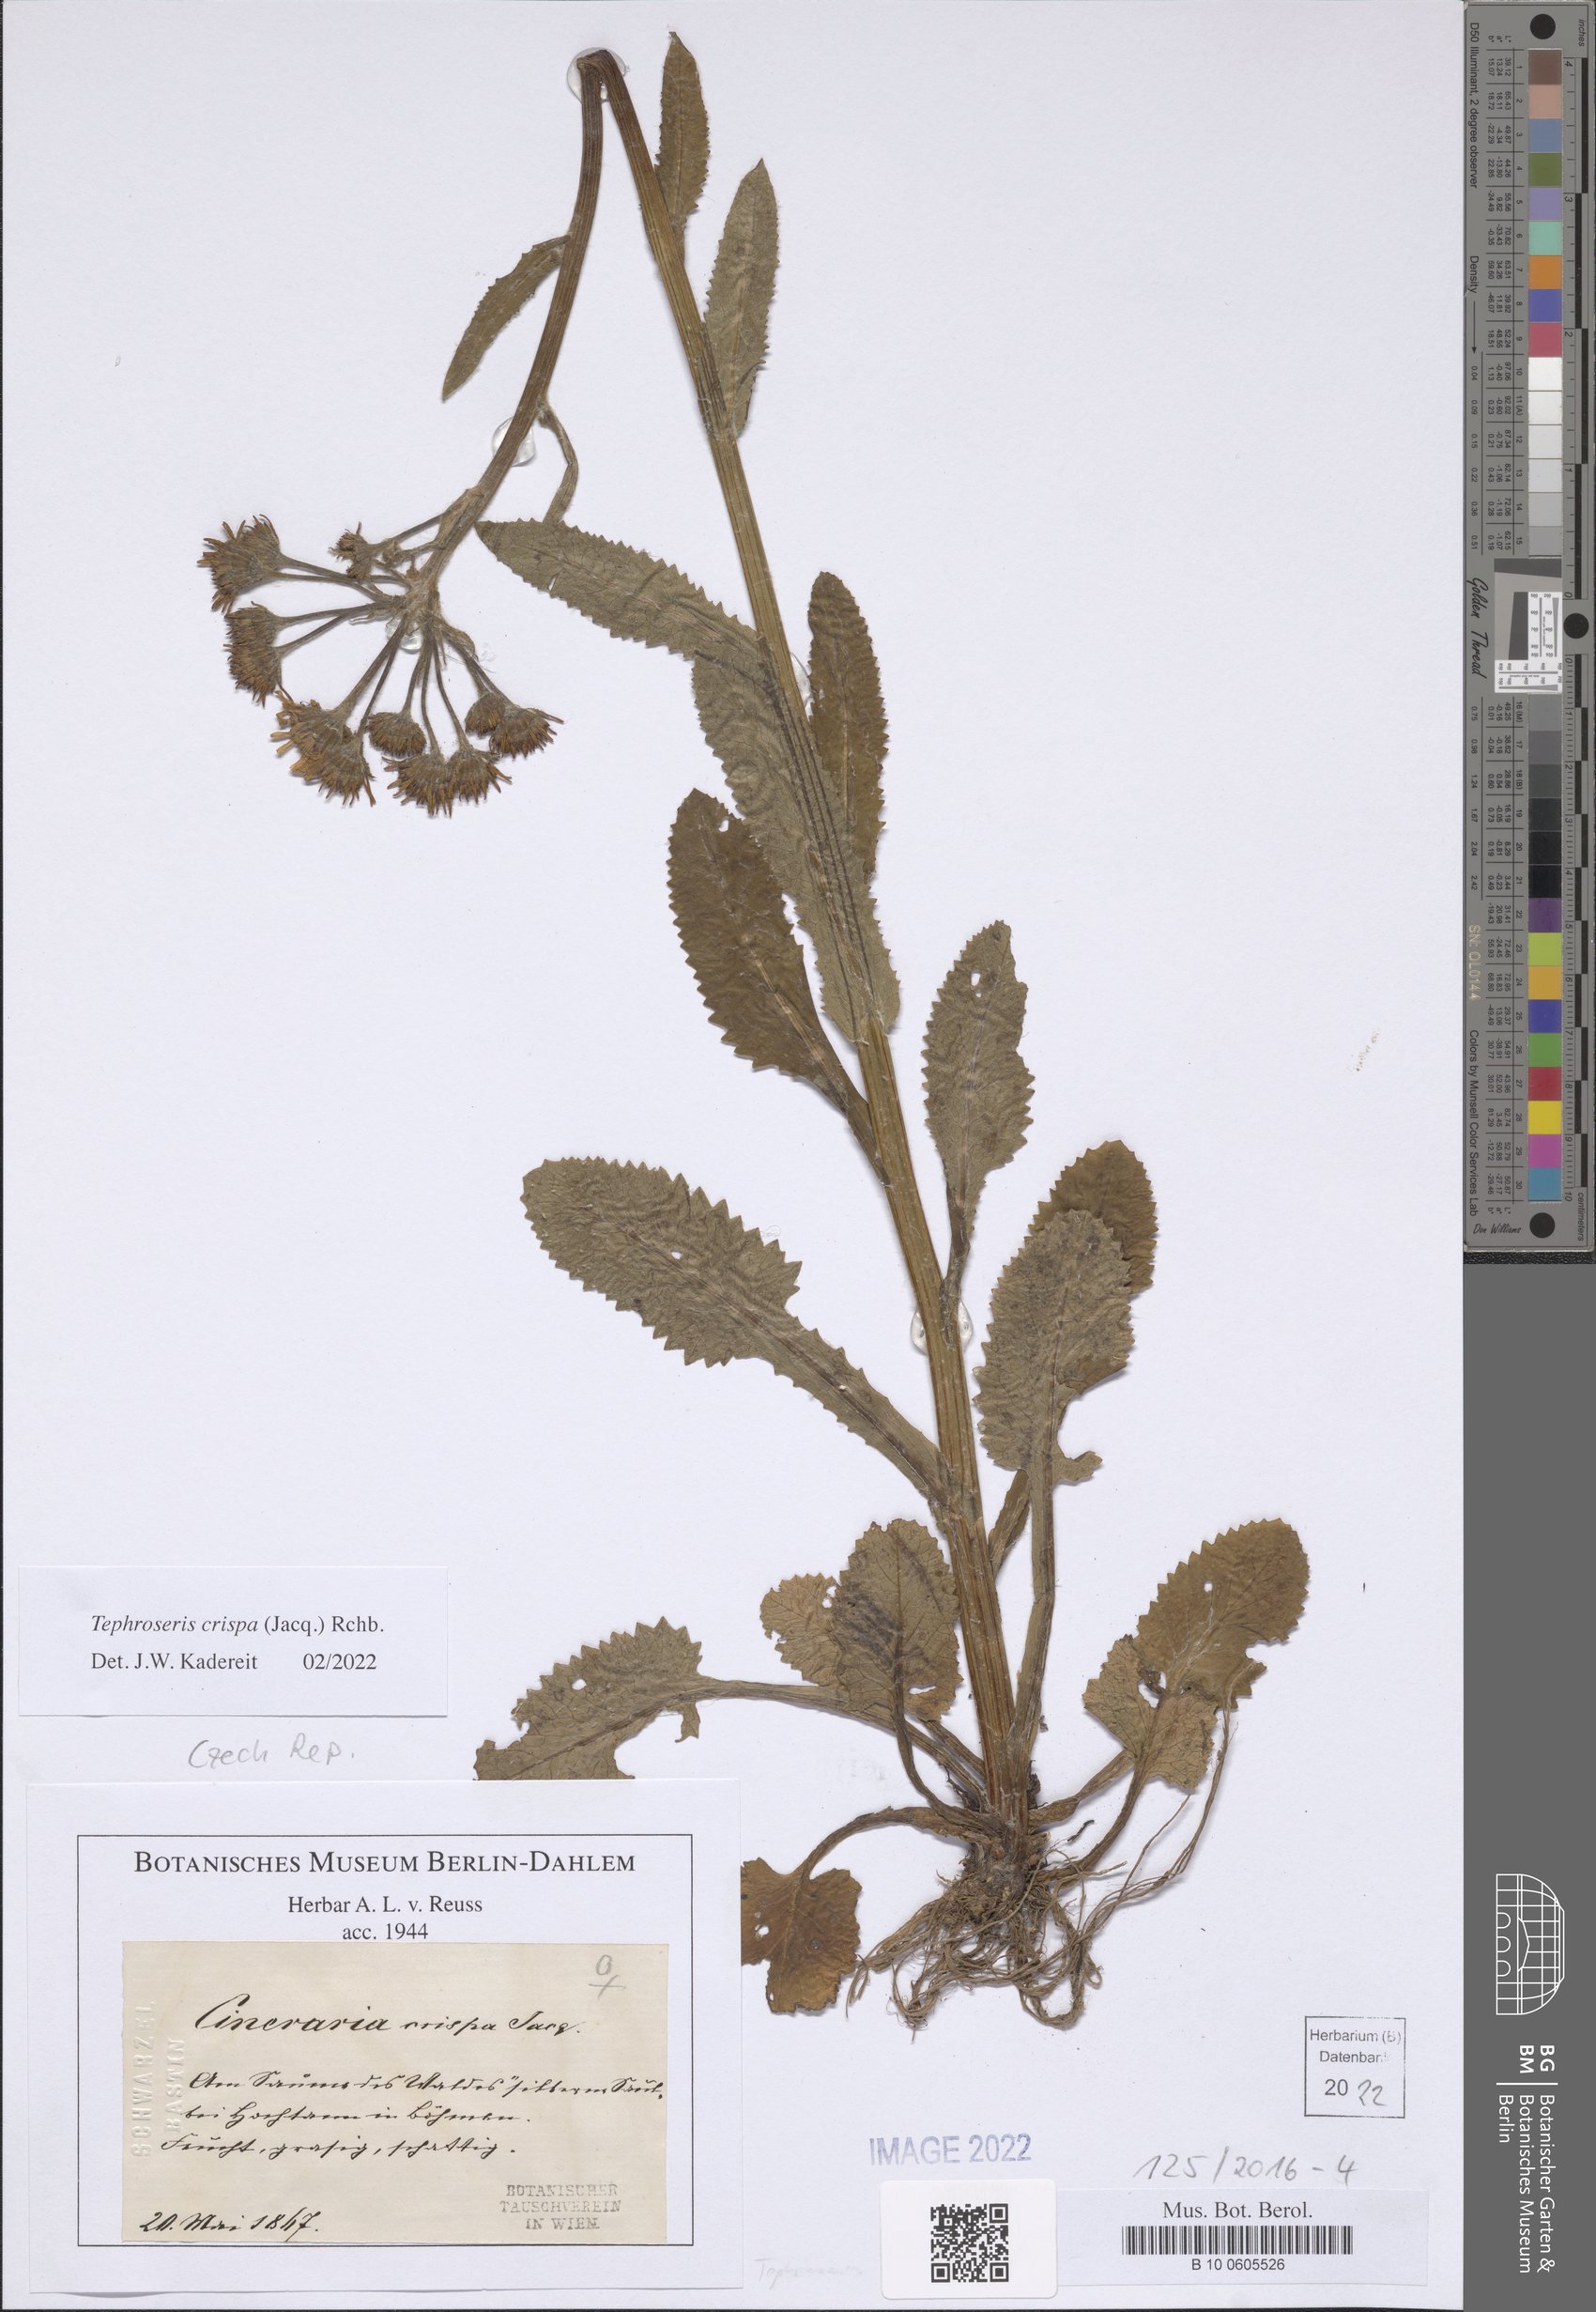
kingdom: Plantae
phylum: Tracheophyta
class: Magnoliopsida
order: Asterales
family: Asteraceae
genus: Tephroseris
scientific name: Tephroseris crispa
